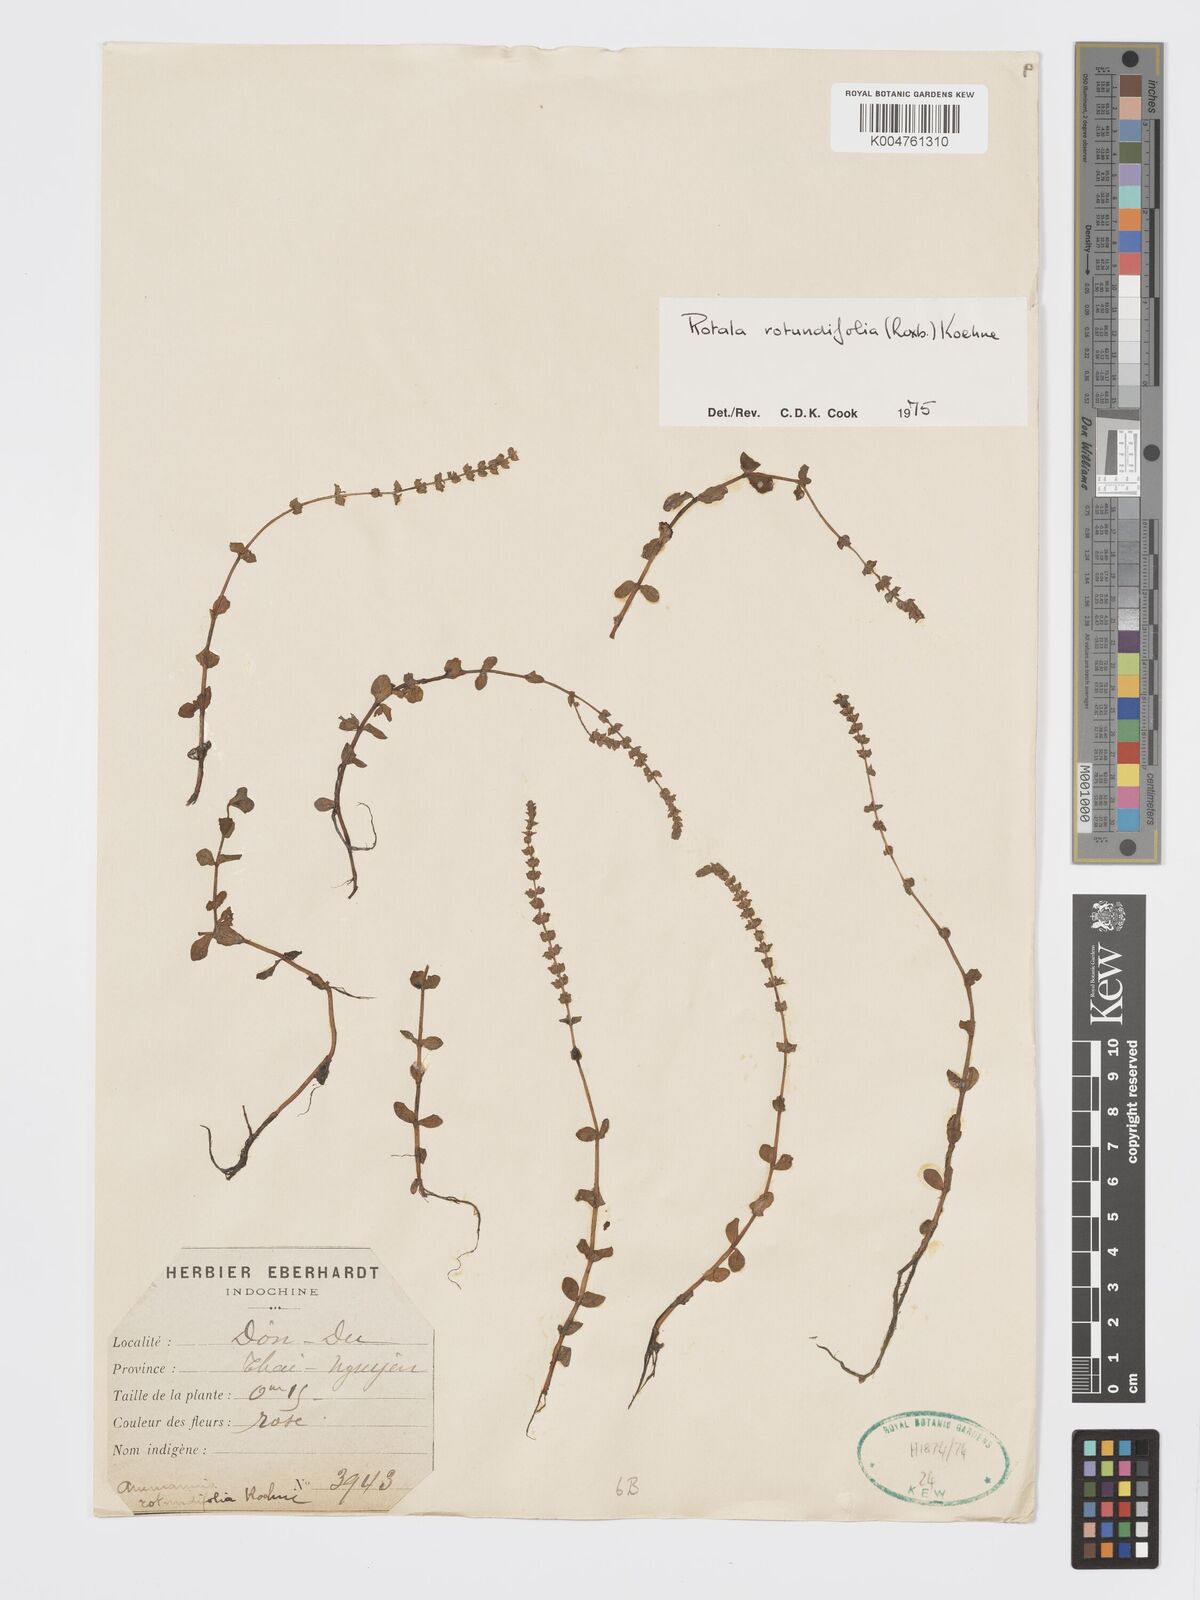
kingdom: Plantae
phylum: Tracheophyta
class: Magnoliopsida
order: Myrtales
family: Lythraceae
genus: Rotala
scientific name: Rotala rotundifolia
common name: Roundleaf toothcup
